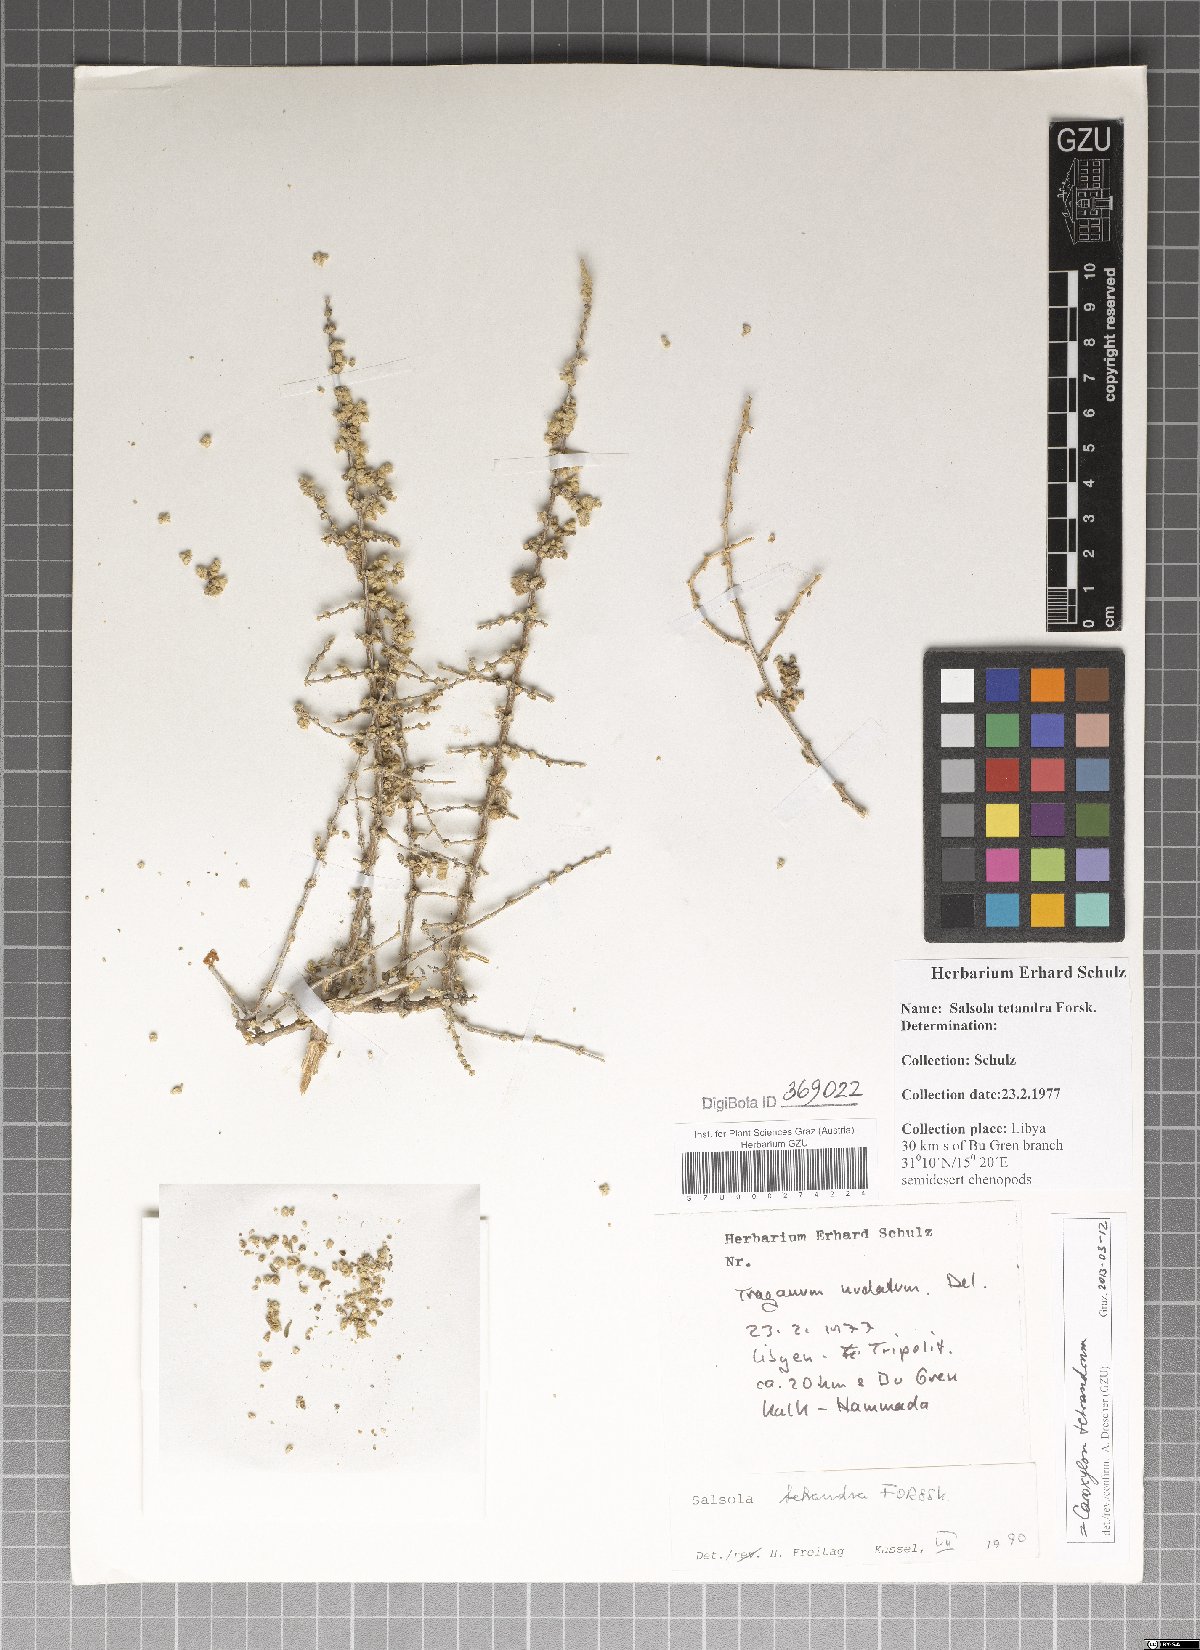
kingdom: Plantae
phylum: Tracheophyta
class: Magnoliopsida
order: Caryophyllales
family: Amaranthaceae
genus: Caroxylon
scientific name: Caroxylon tetrandrum
